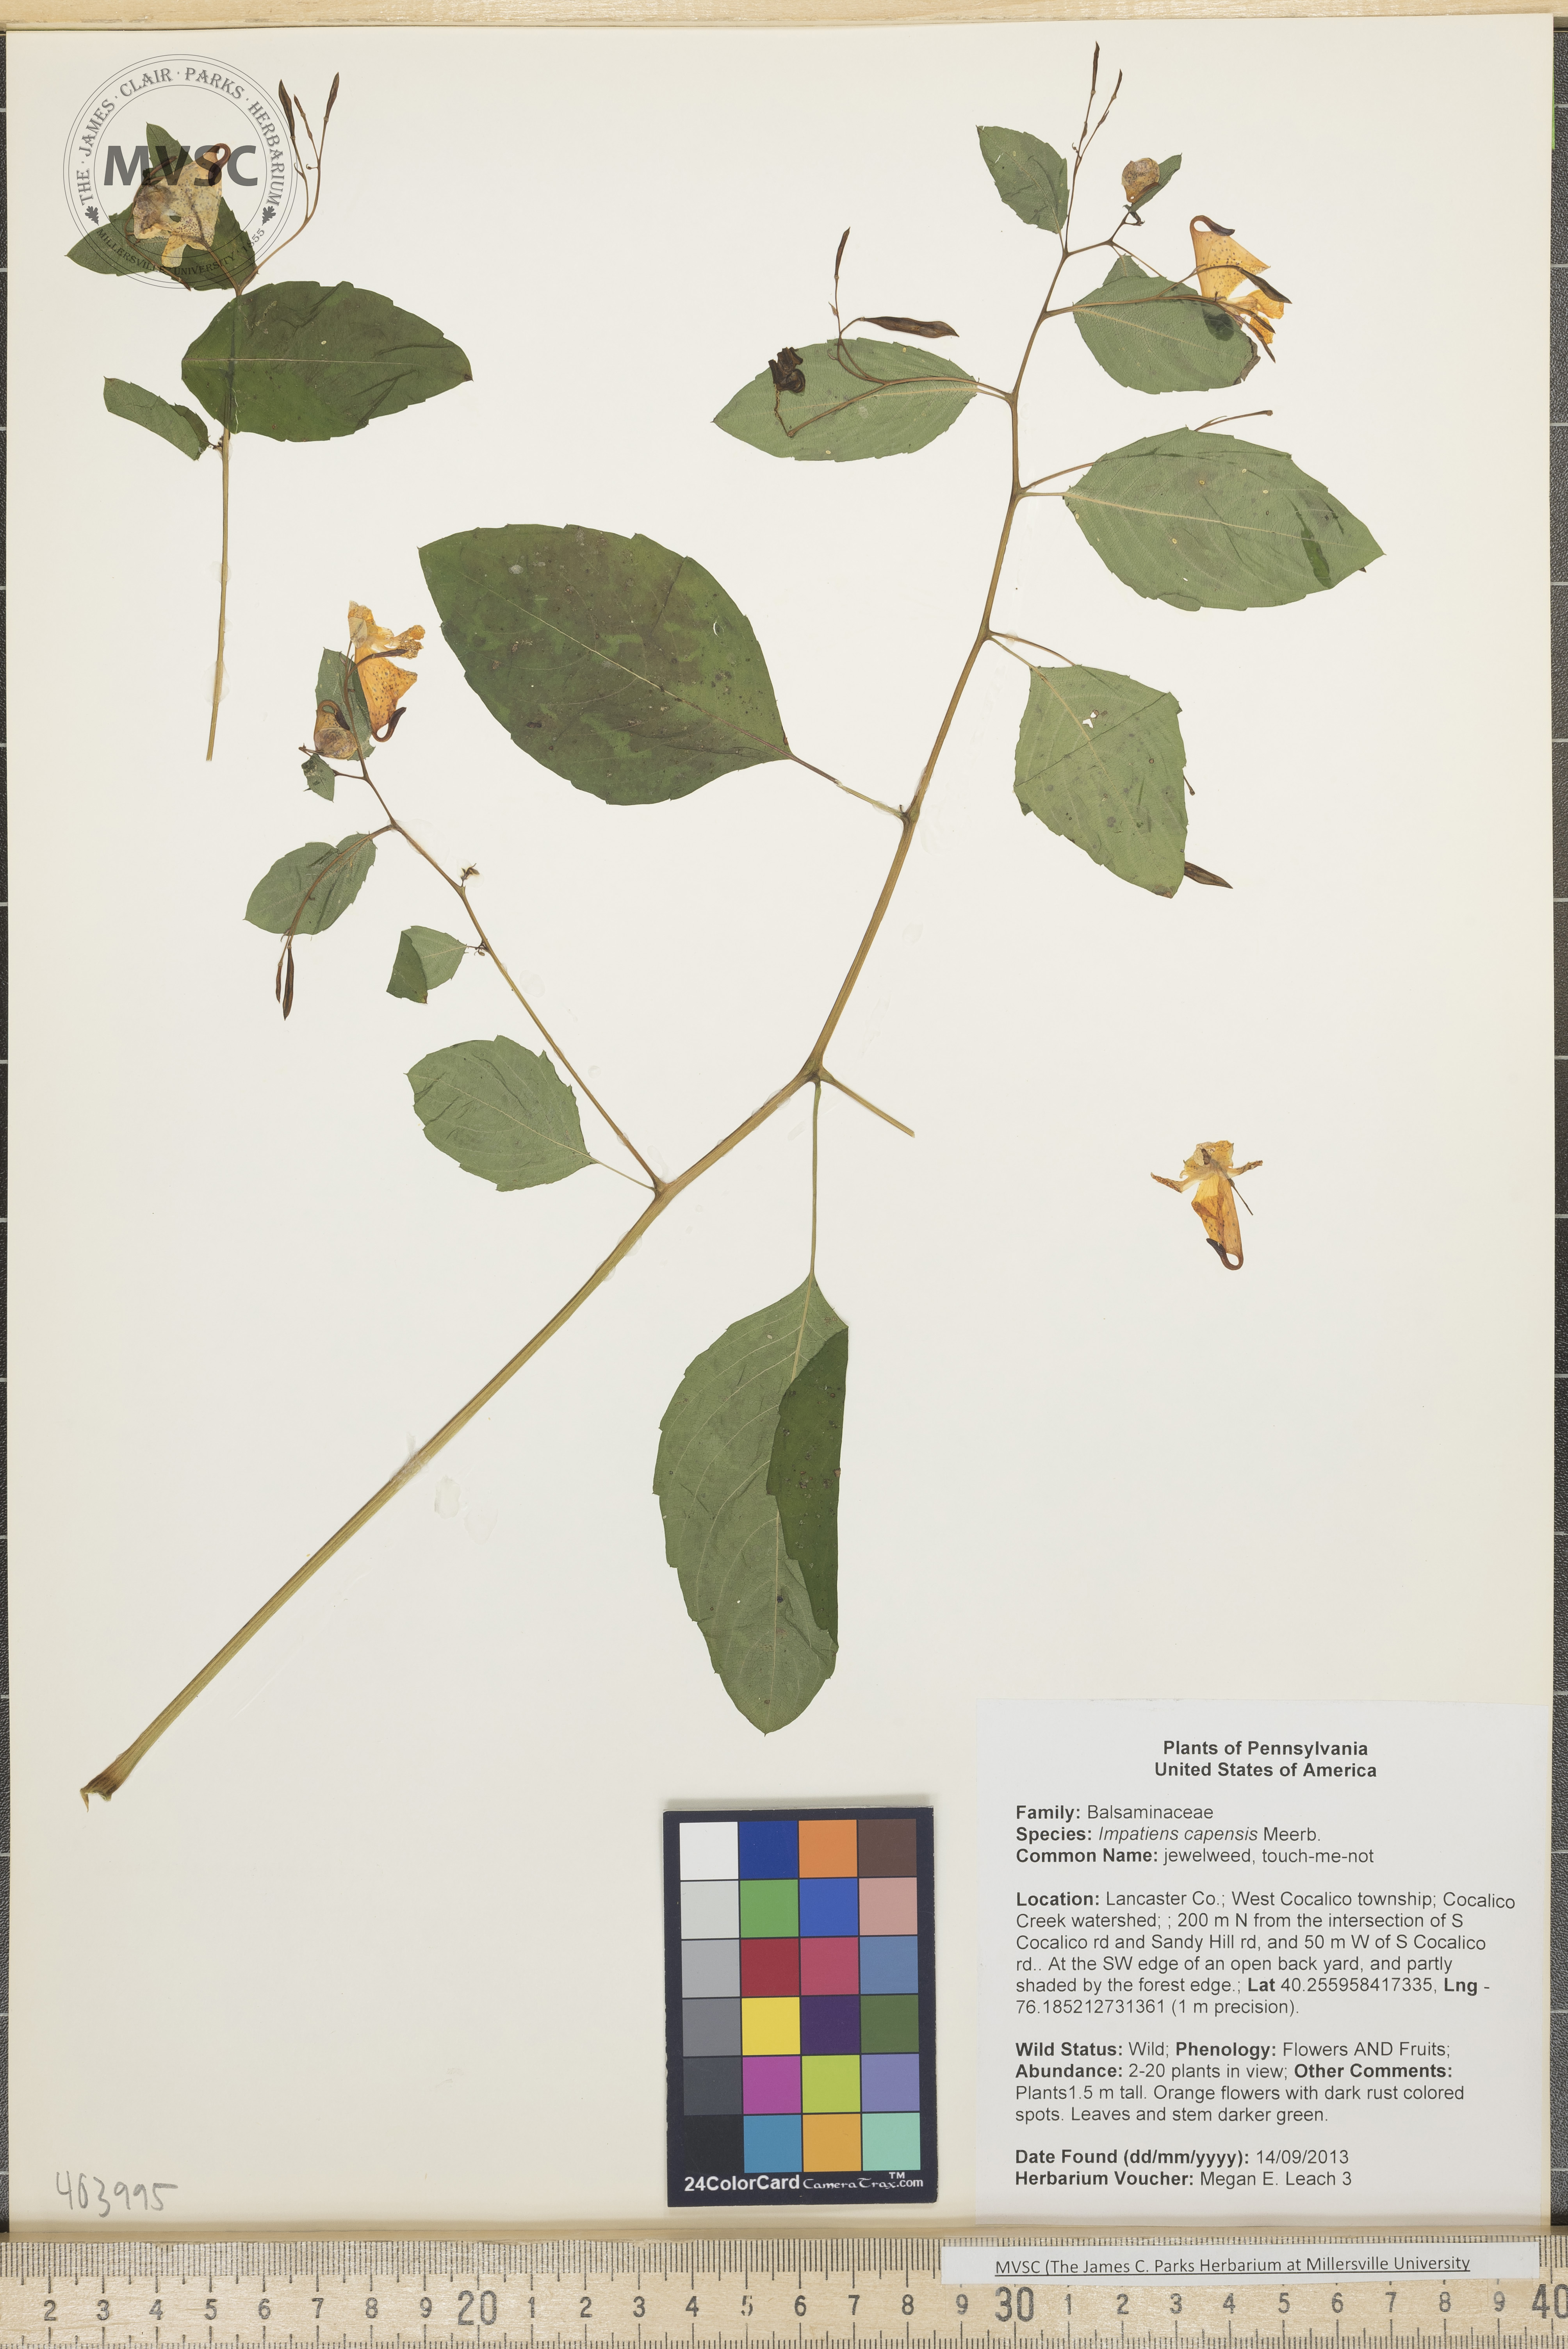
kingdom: Plantae
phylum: Tracheophyta
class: Magnoliopsida
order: Ericales
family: Balsaminaceae
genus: Impatiens
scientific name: Impatiens capensis
